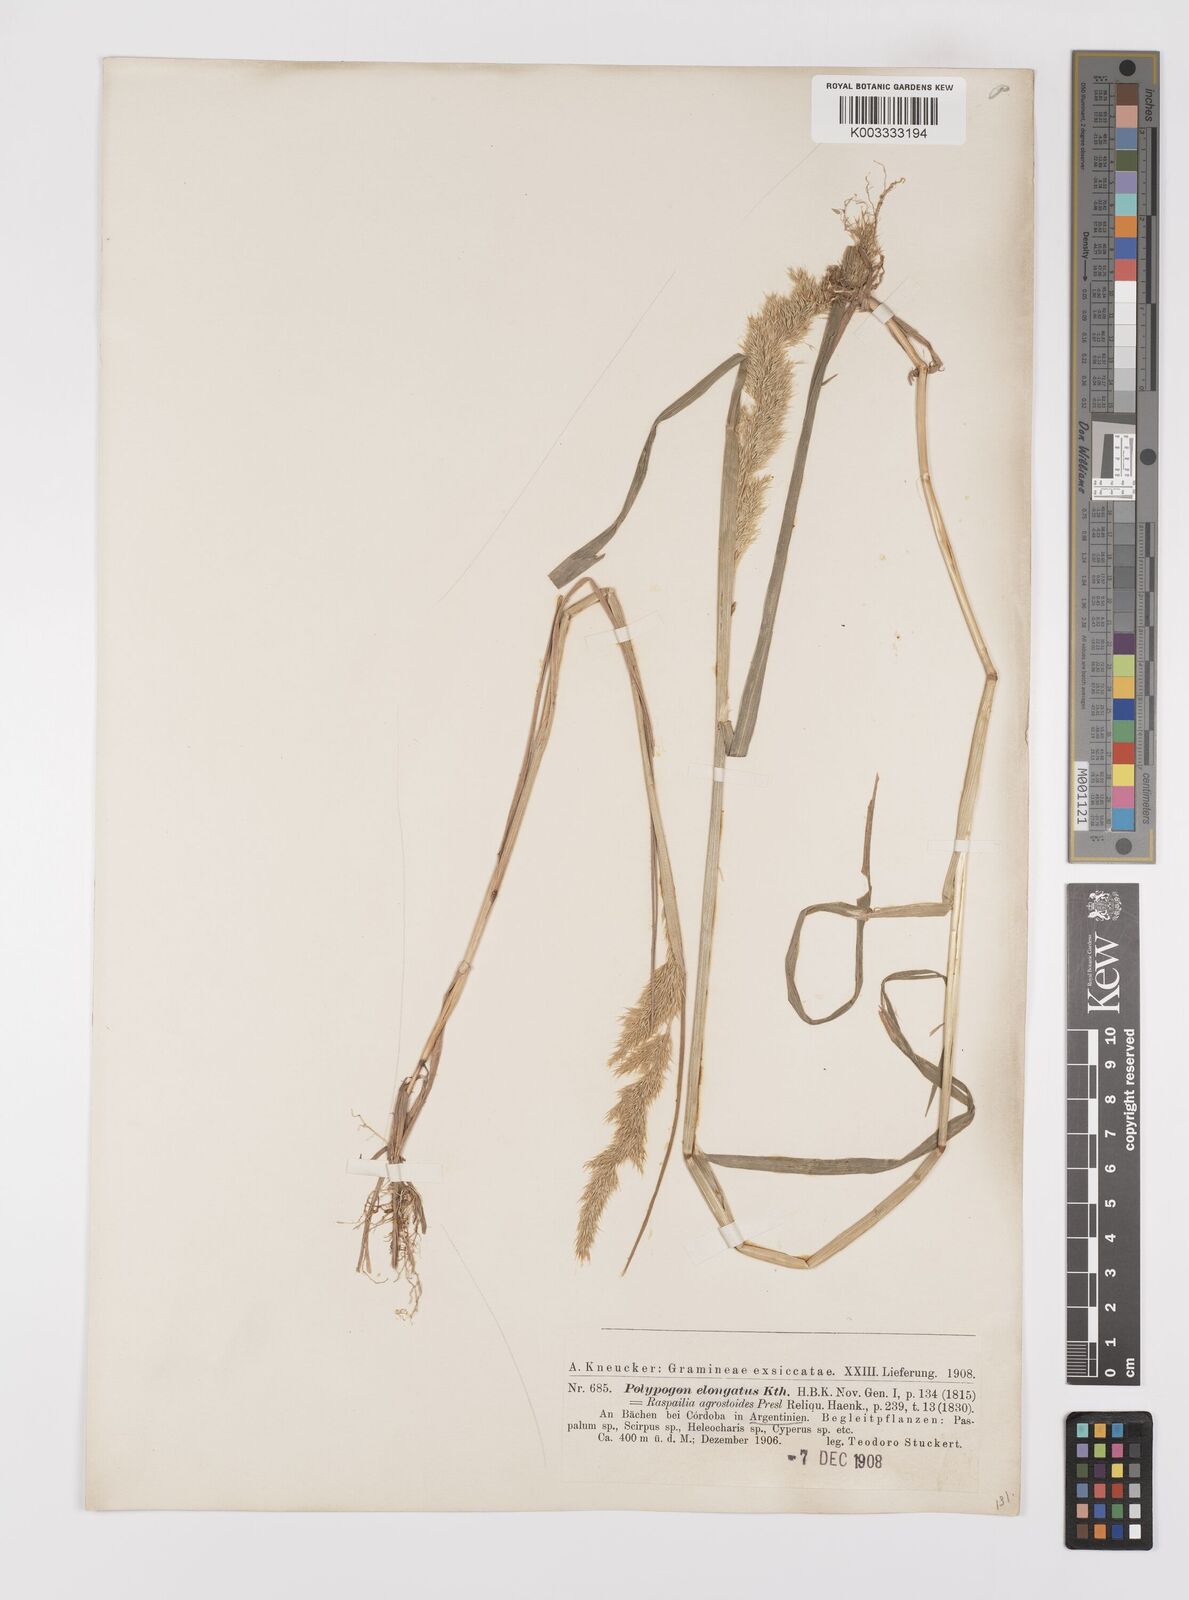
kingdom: Plantae
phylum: Tracheophyta
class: Liliopsida
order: Poales
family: Poaceae
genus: Polypogon
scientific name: Polypogon elongatus
